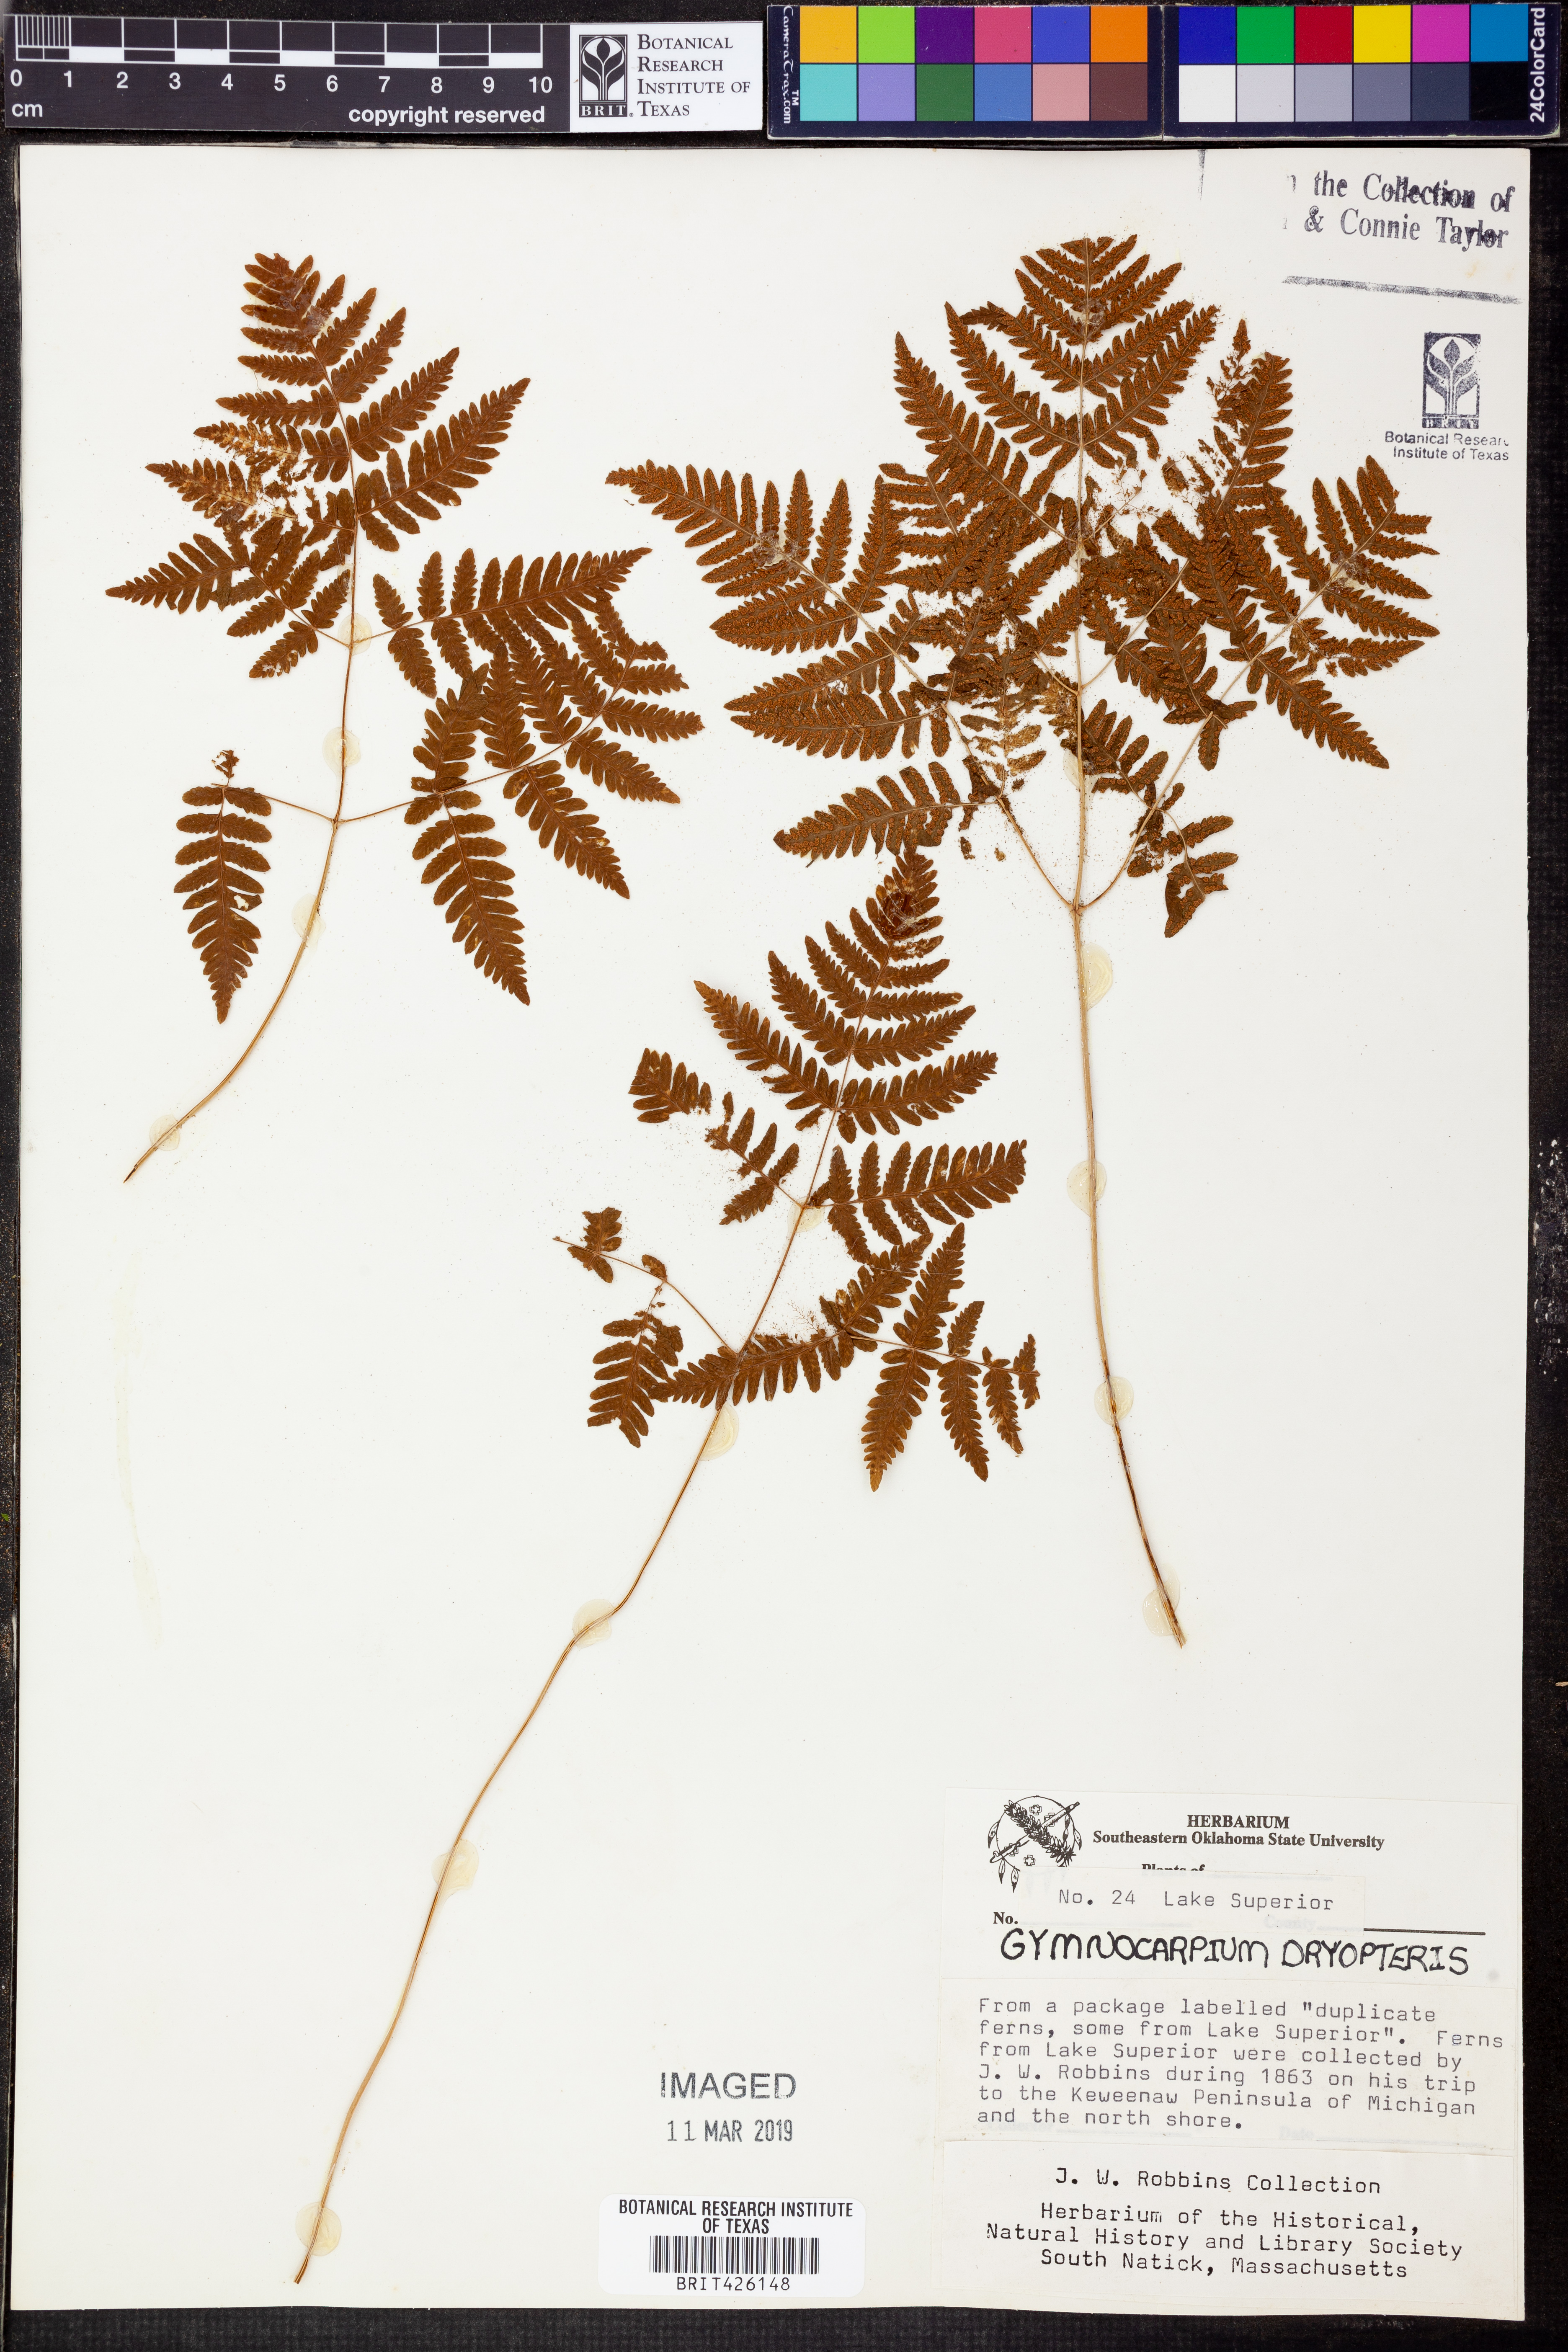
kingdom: Plantae
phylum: Tracheophyta
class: Polypodiopsida
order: Polypodiales
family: Cystopteridaceae
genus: Gymnocarpium
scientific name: Gymnocarpium dryopteris
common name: Oak fern
